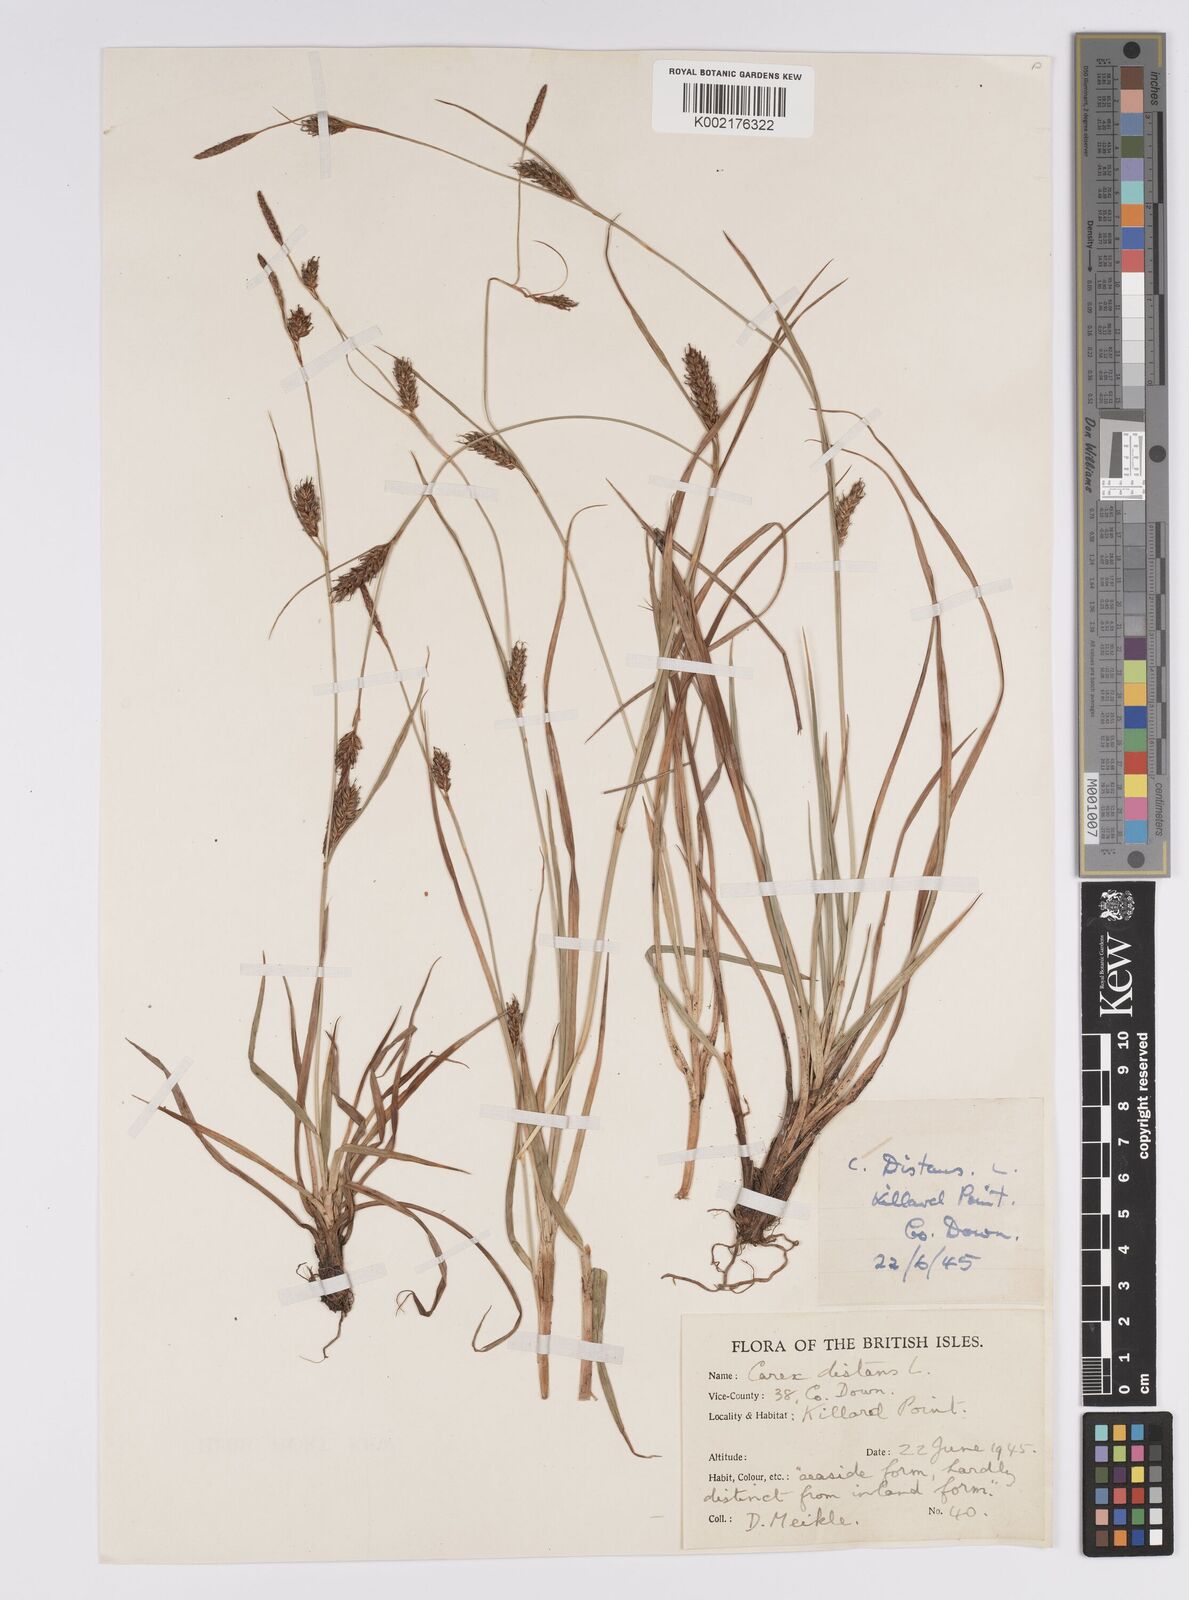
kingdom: Plantae
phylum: Tracheophyta
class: Liliopsida
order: Poales
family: Cyperaceae
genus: Carex
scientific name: Carex distans
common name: Distant sedge
